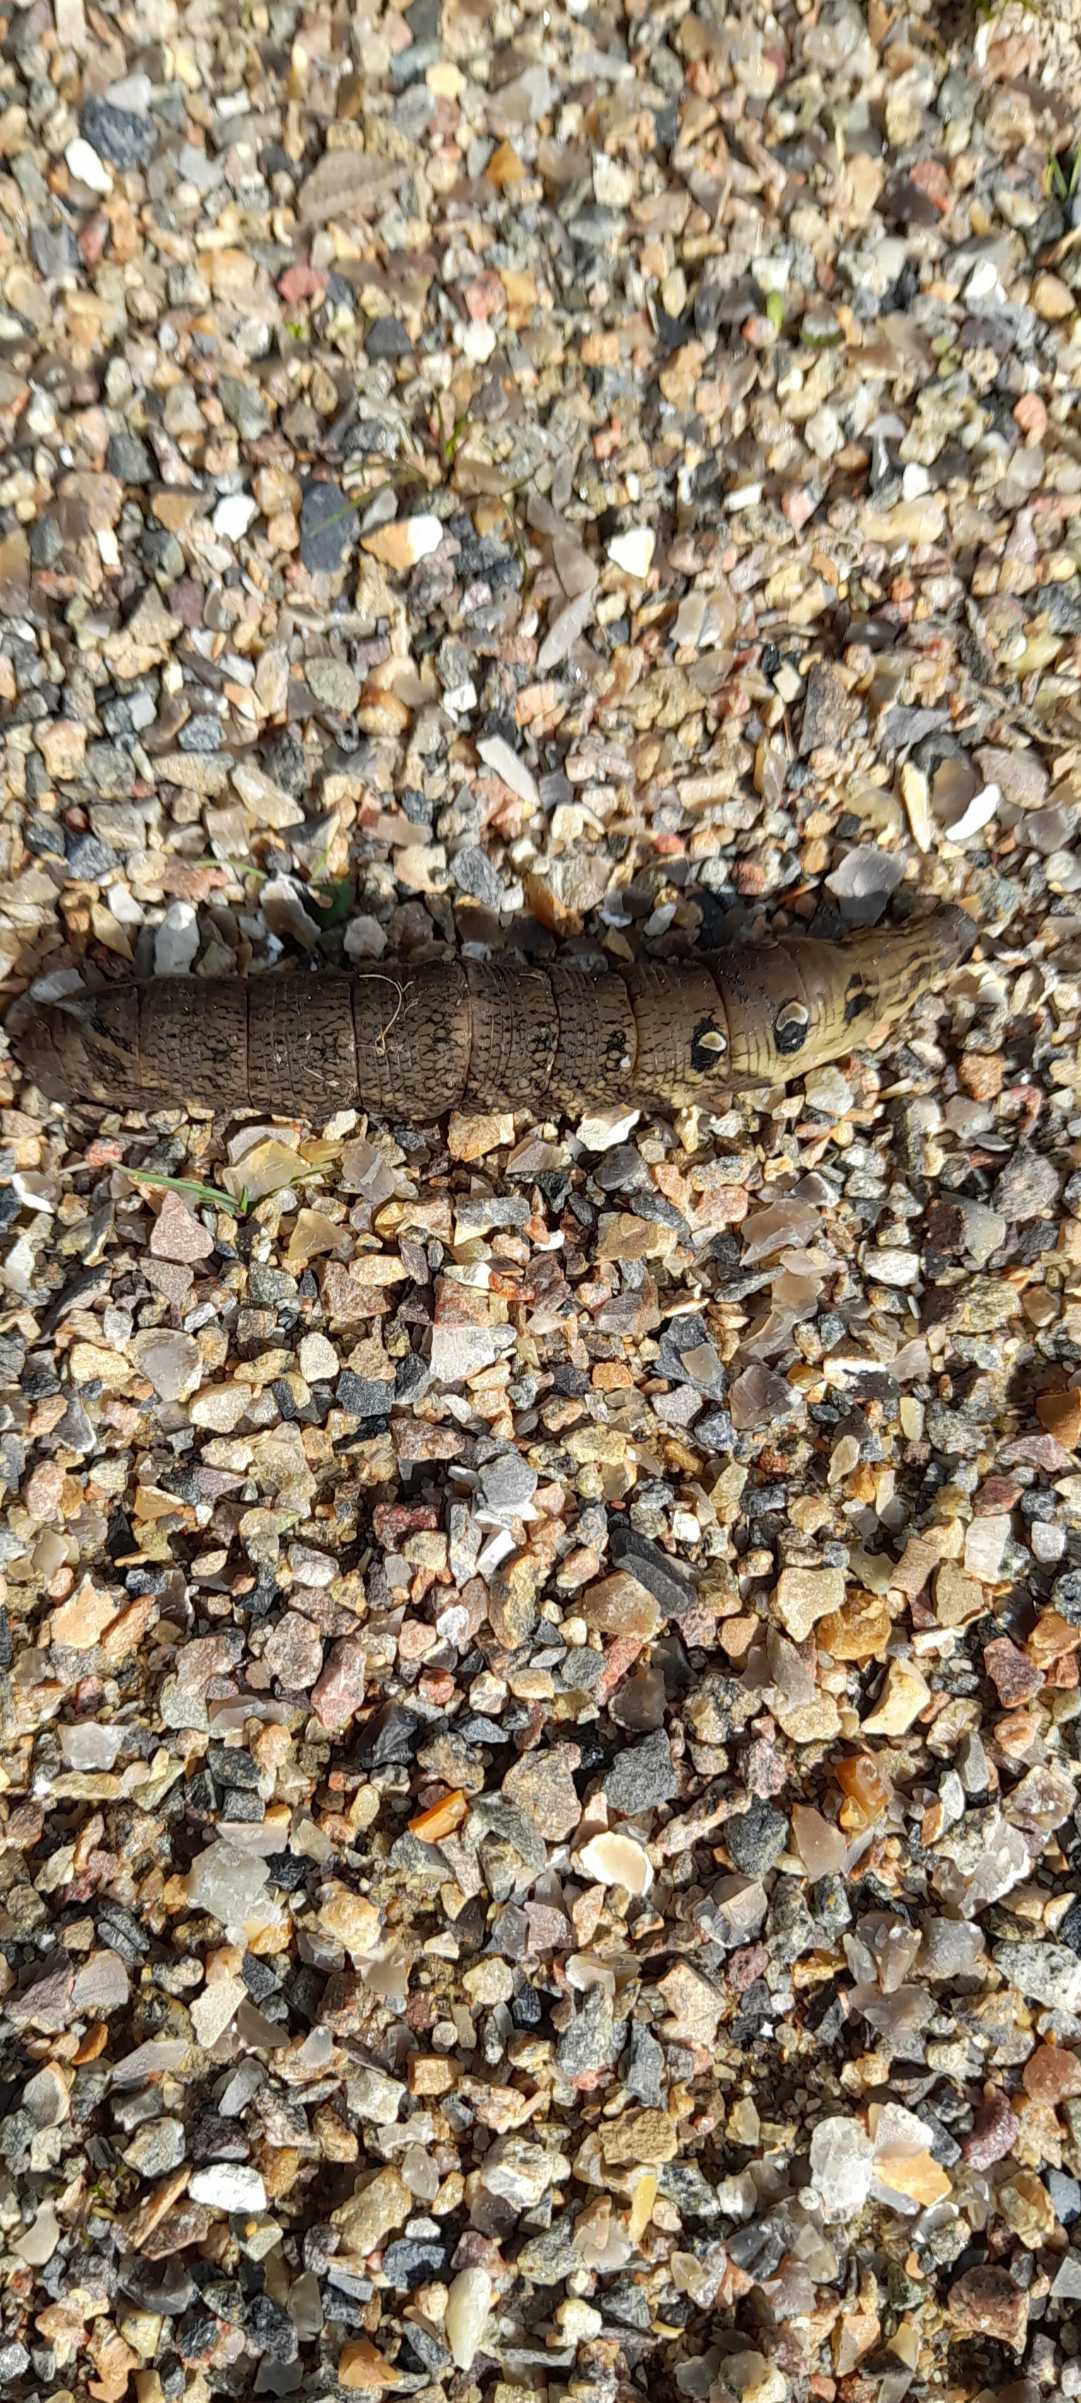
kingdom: Animalia
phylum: Arthropoda
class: Insecta
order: Lepidoptera
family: Sphingidae
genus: Deilephila
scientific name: Deilephila elpenor
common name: Dueurtsværmer
